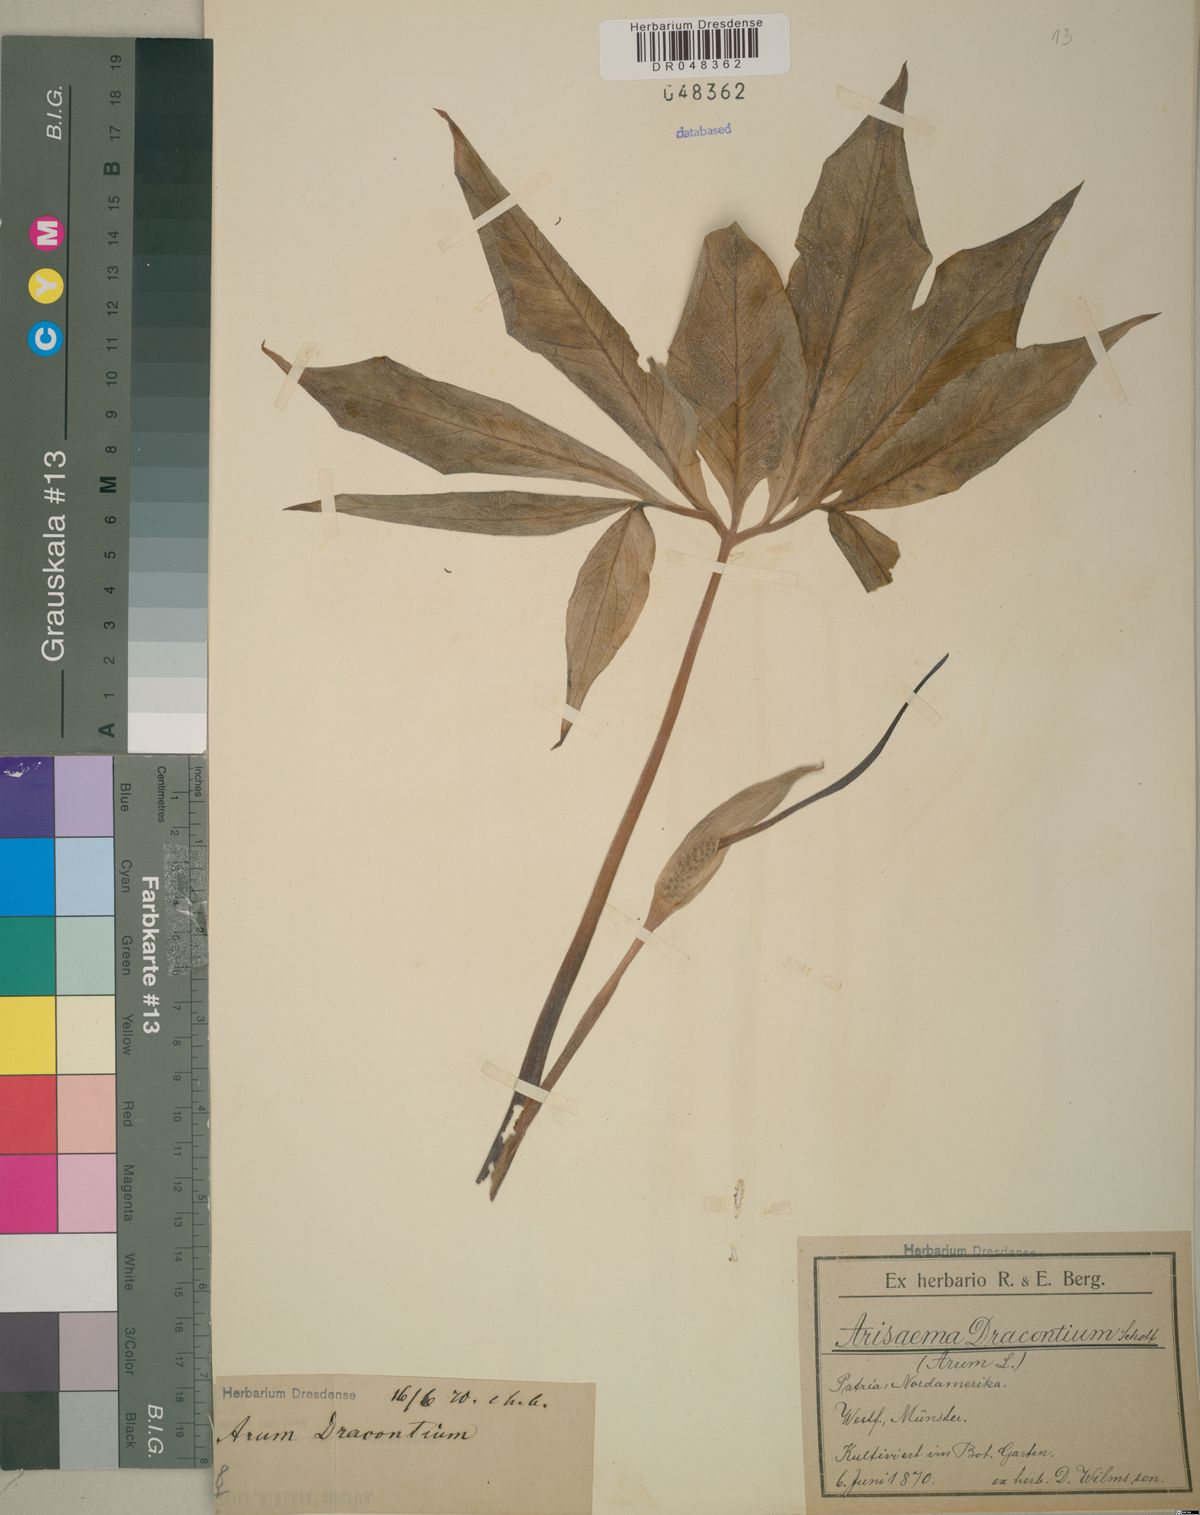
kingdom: Plantae
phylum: Tracheophyta
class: Liliopsida
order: Alismatales
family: Araceae
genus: Arisaema
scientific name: Arisaema dracontium
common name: Dragon-arum
